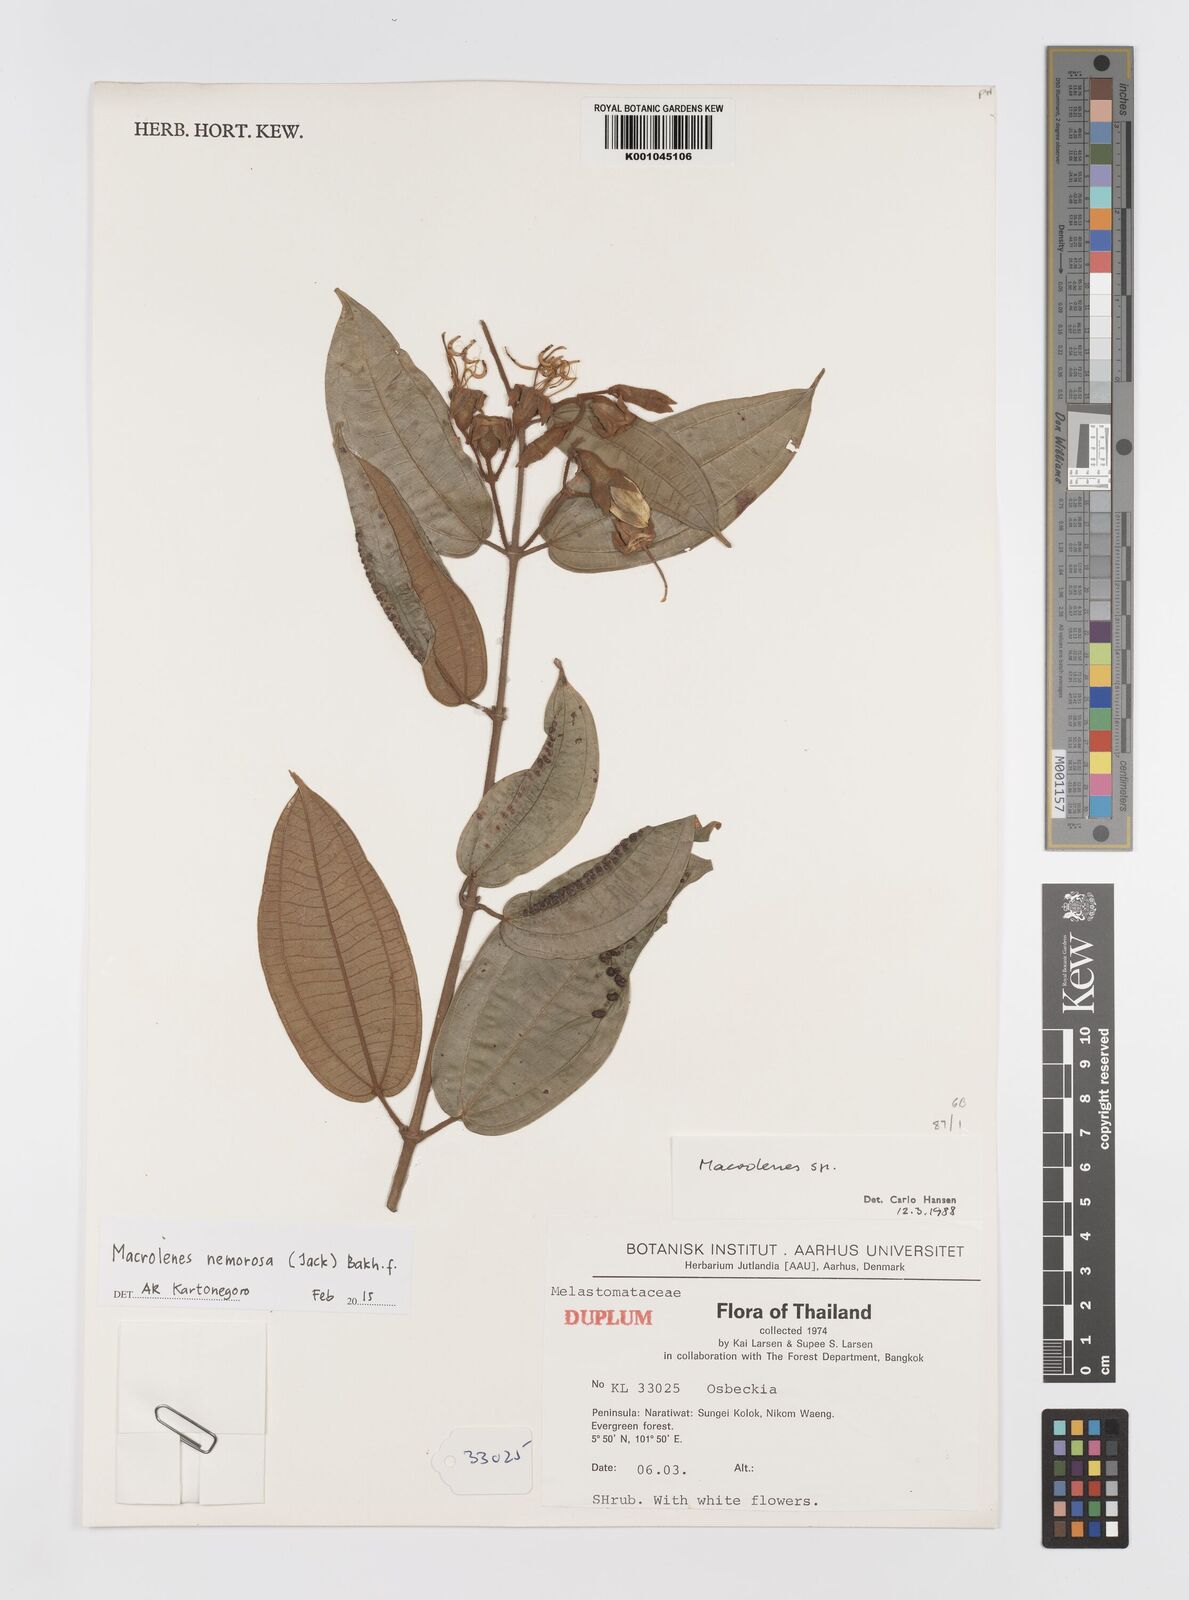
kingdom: Plantae
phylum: Tracheophyta
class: Magnoliopsida
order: Myrtales
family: Melastomataceae
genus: Macrolenes
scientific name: Macrolenes nemorosa
